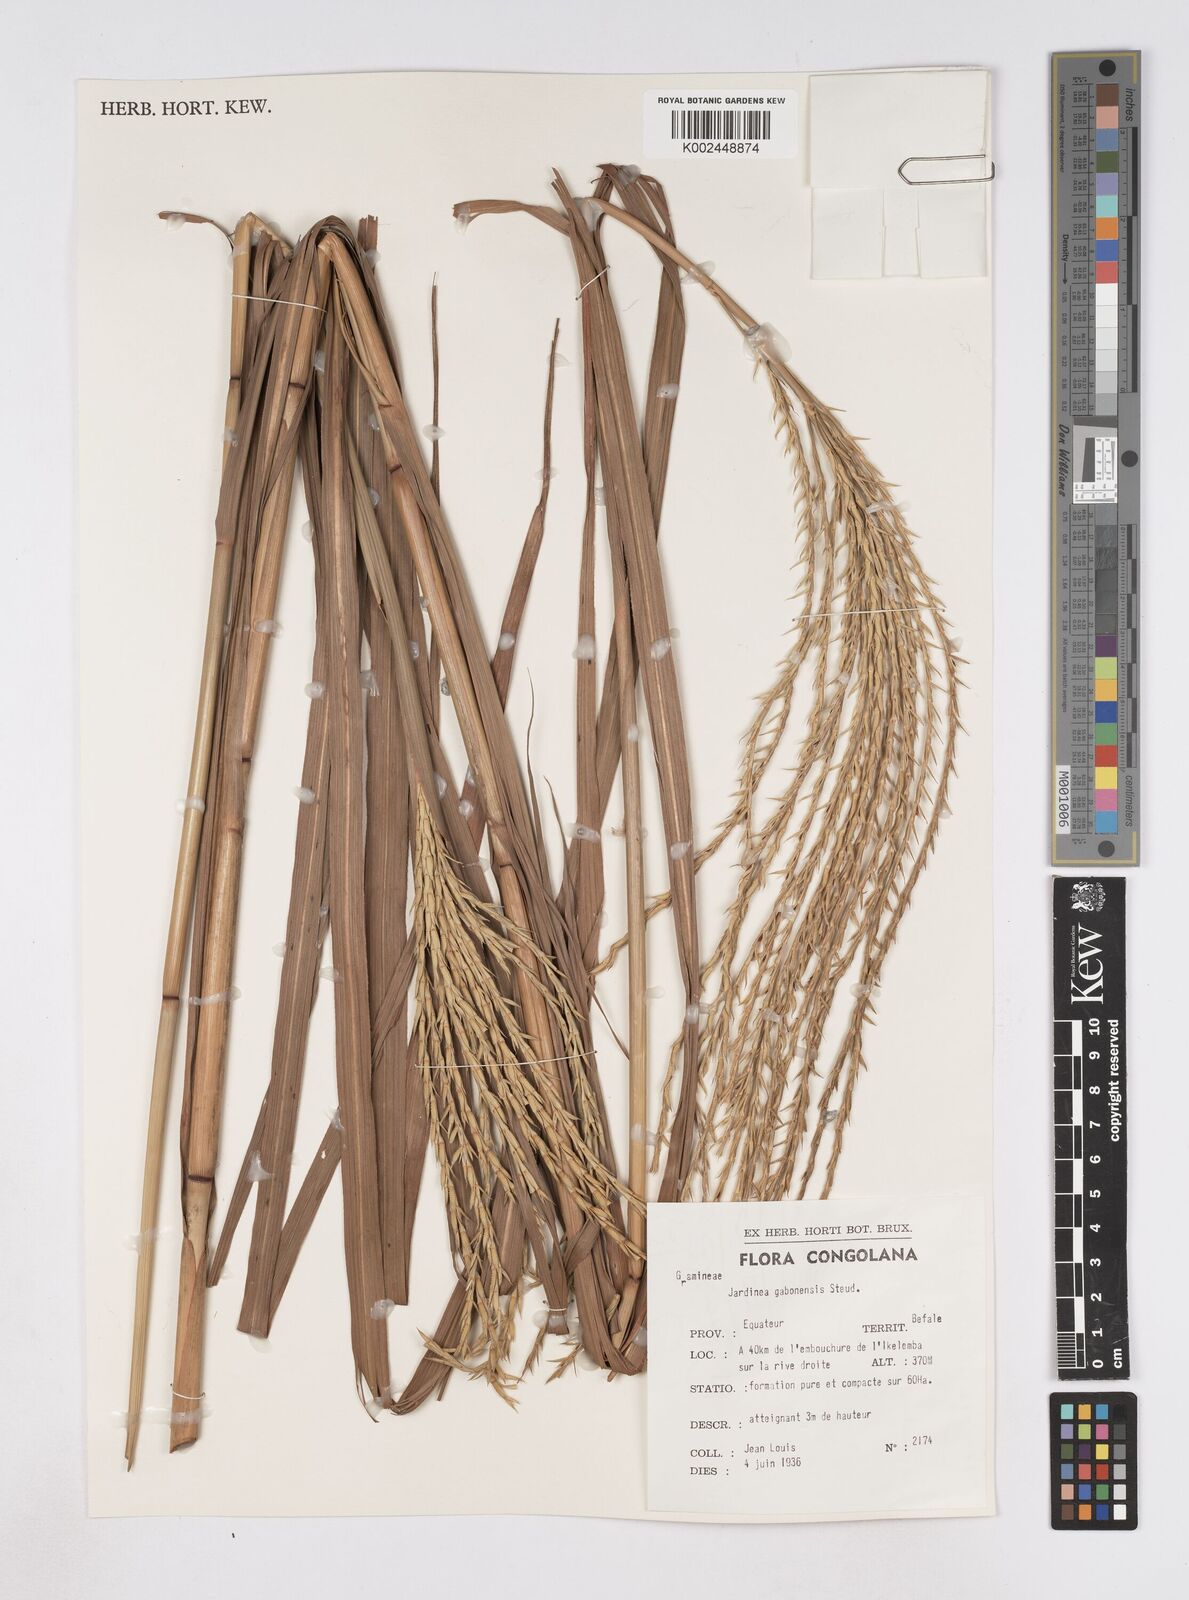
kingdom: Plantae
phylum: Tracheophyta
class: Liliopsida
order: Poales
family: Poaceae
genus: Phacelurus
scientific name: Phacelurus gabonensis
